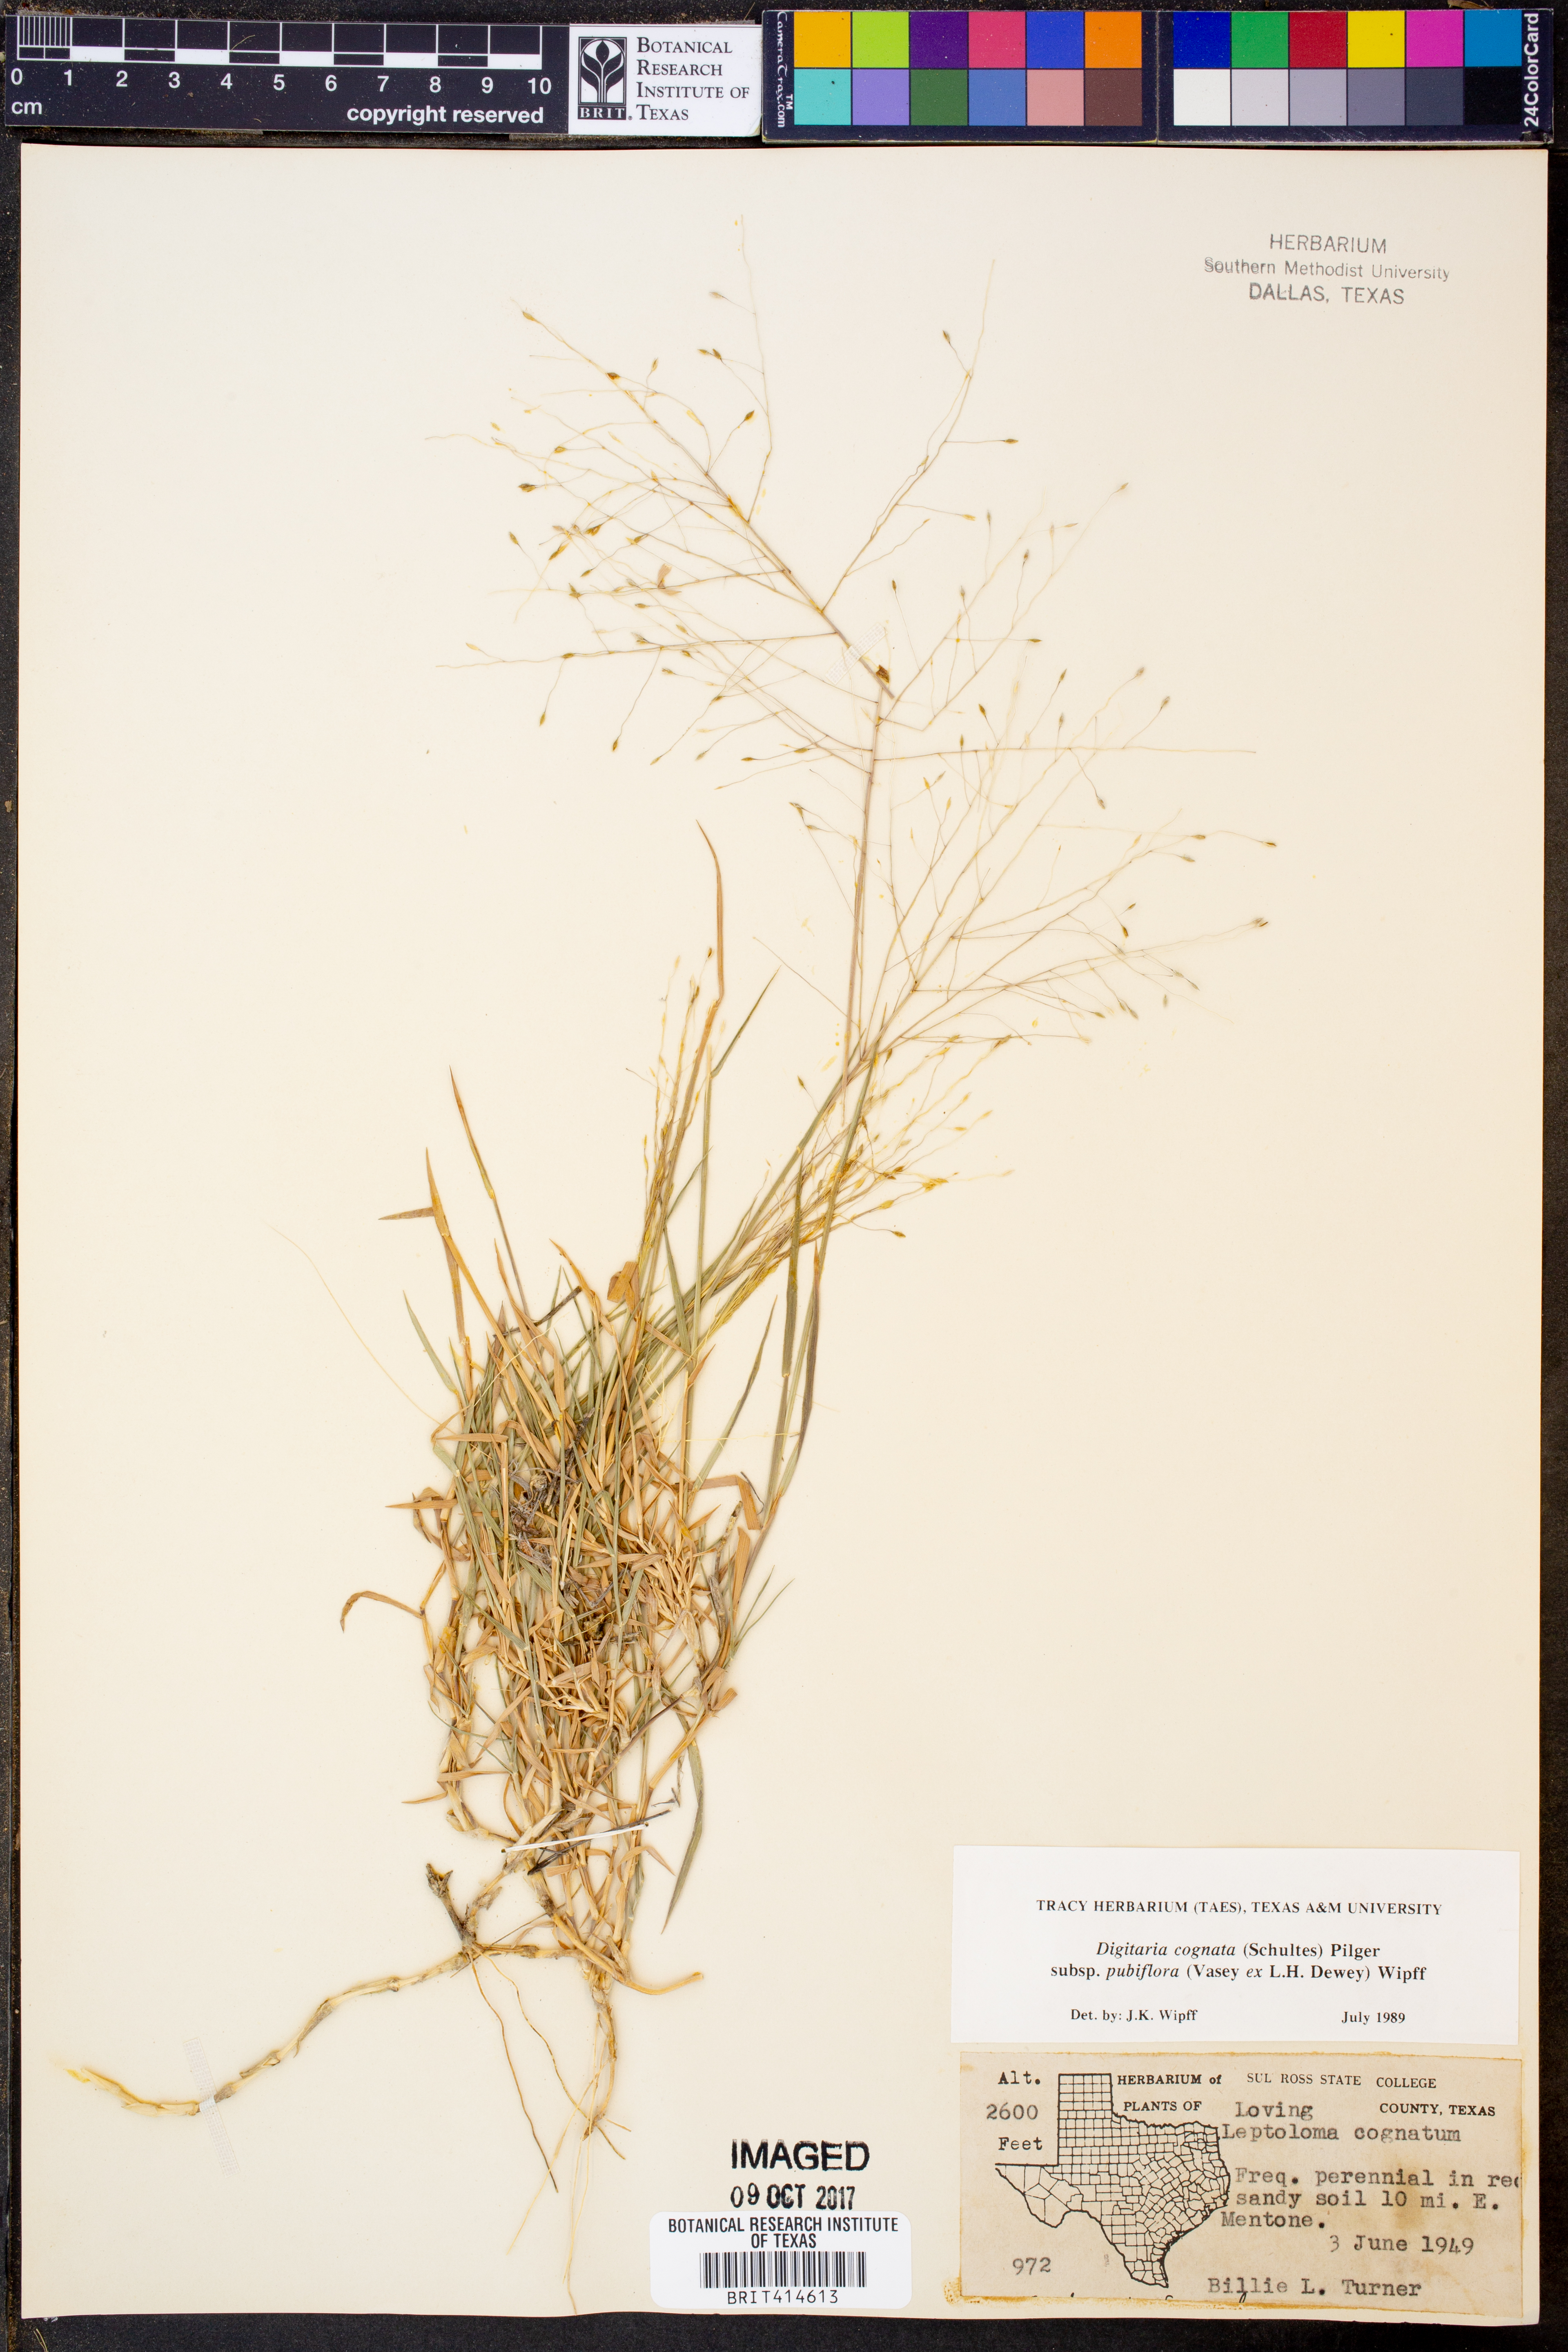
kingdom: Plantae
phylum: Tracheophyta
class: Liliopsida
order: Poales
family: Poaceae
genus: Digitaria
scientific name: Digitaria cognata
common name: Fall witchgrass
